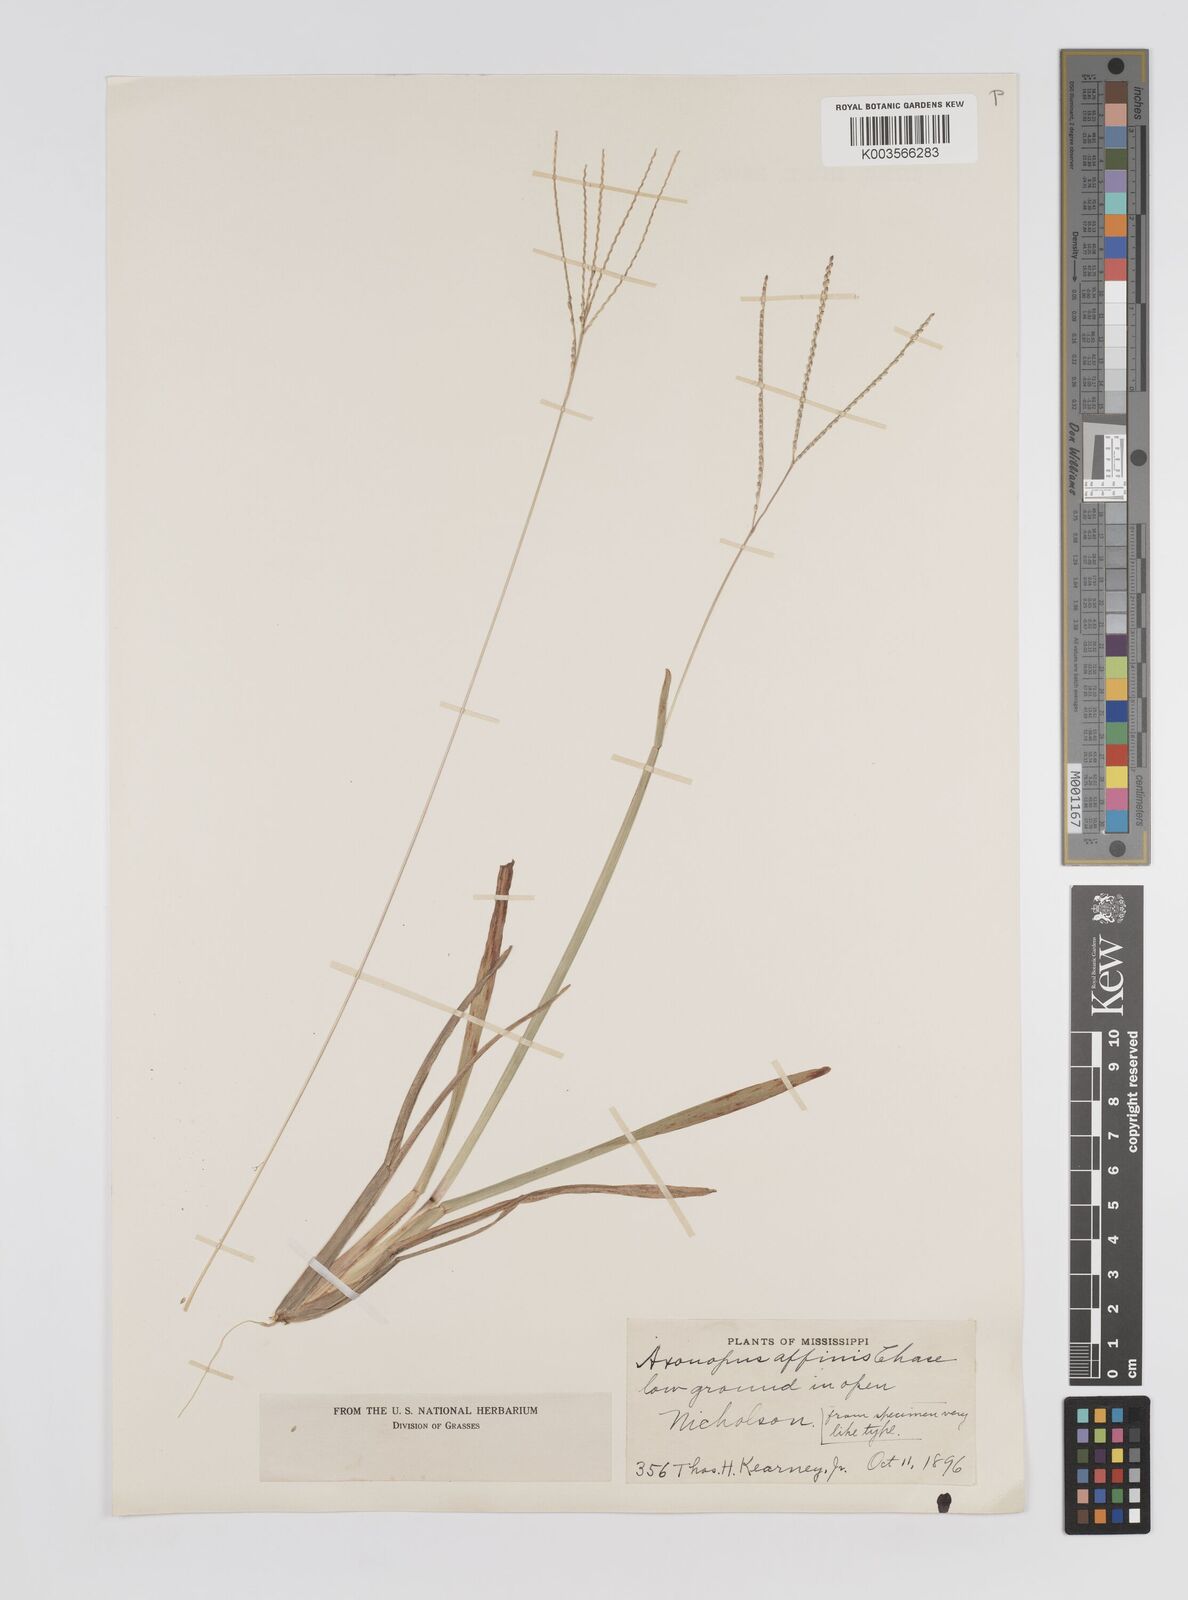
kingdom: Plantae
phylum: Tracheophyta
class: Liliopsida
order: Poales
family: Poaceae
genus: Axonopus
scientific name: Axonopus fissifolius
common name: Common carpetgrass
